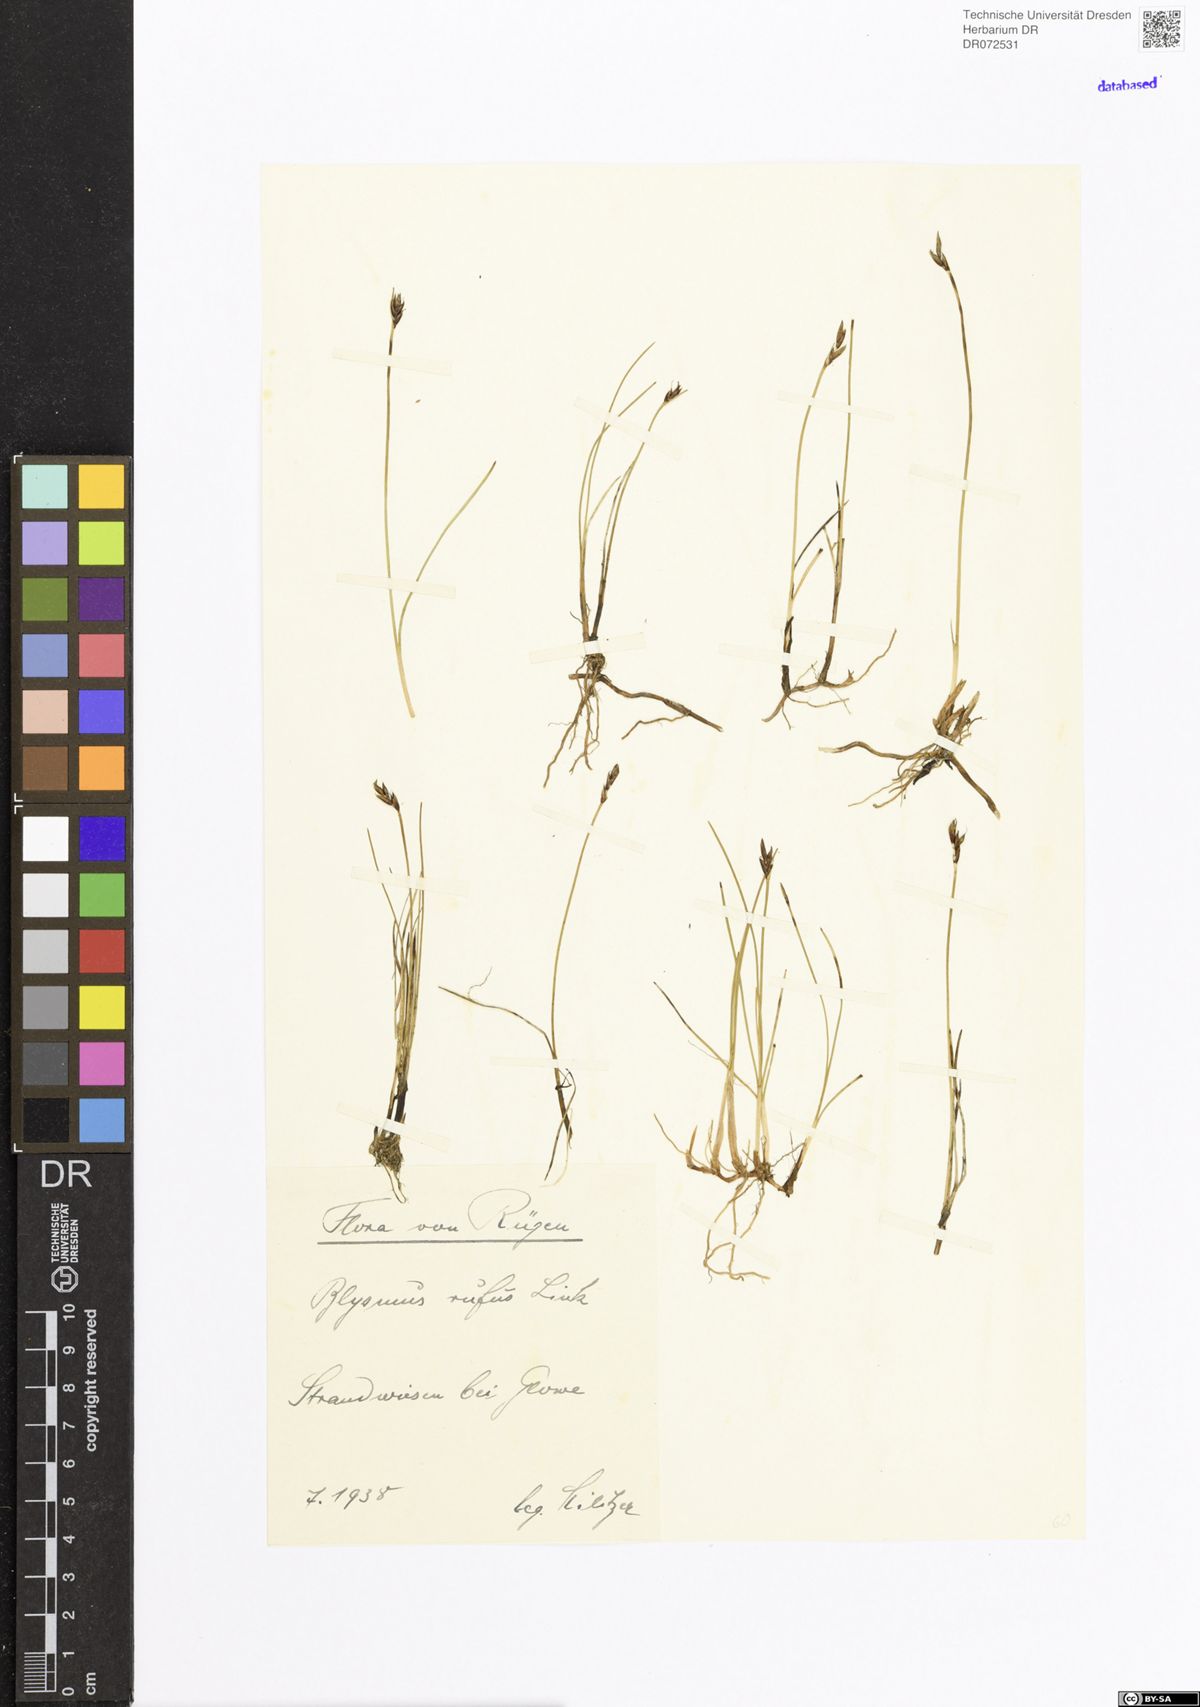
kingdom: Plantae
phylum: Tracheophyta
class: Liliopsida
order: Poales
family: Cyperaceae
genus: Blysmus
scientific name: Blysmus rufus
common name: Saltmarsh flat-sedge
